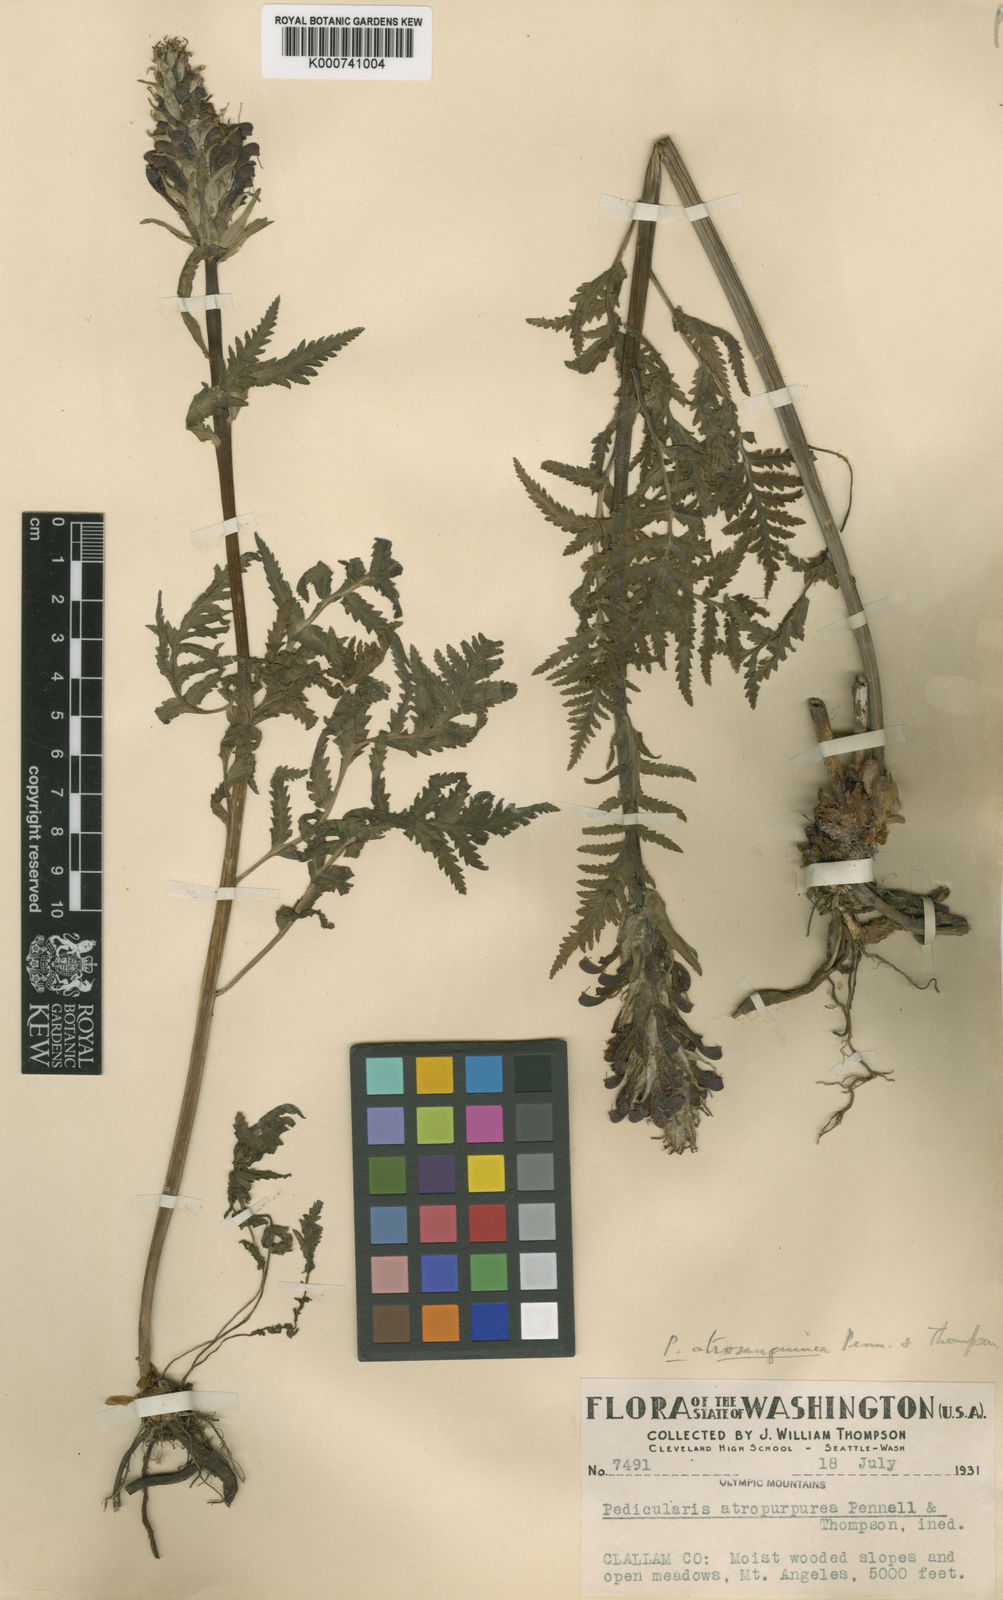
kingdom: Plantae
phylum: Tracheophyta
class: Magnoliopsida
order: Lamiales
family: Orobanchaceae
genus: Pedicularis
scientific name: Pedicularis bracteosa
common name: Bracted lousewort
